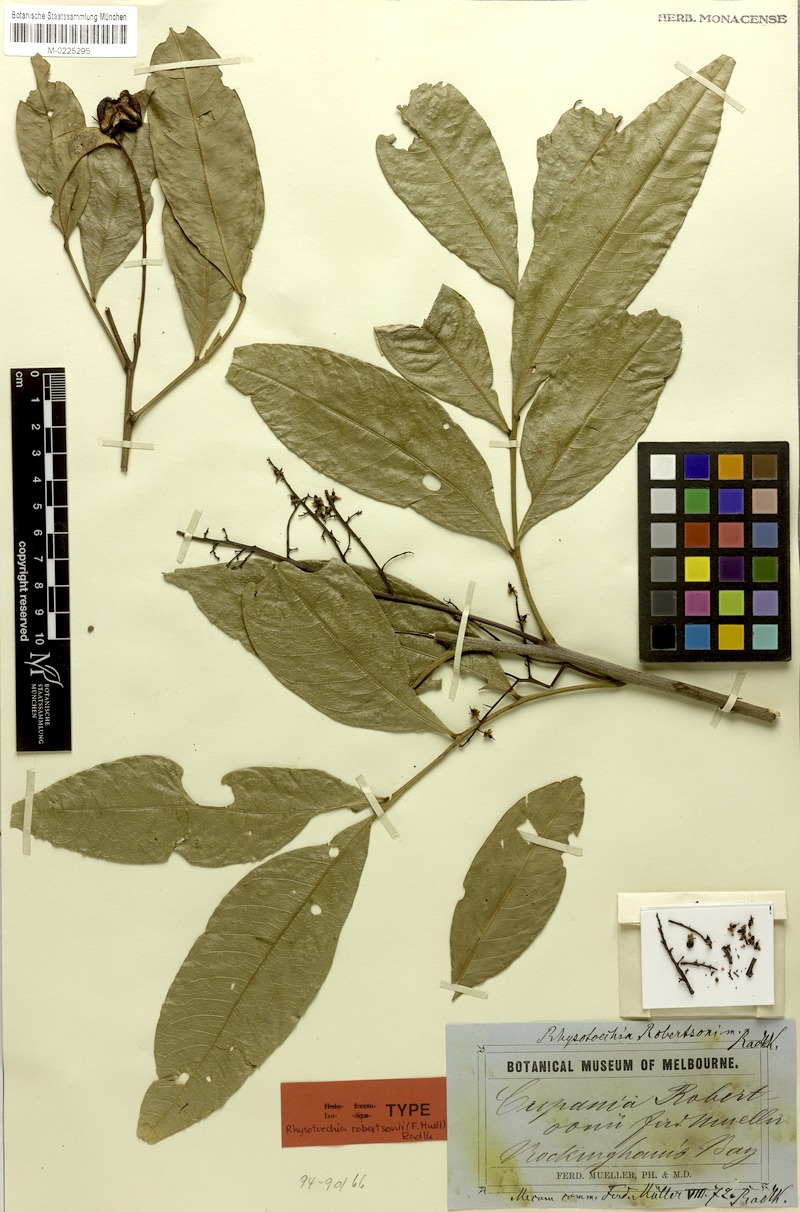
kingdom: Plantae
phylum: Tracheophyta
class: Magnoliopsida
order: Sapindales
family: Sapindaceae
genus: Rhysotoechia
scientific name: Rhysotoechia robertsonii
